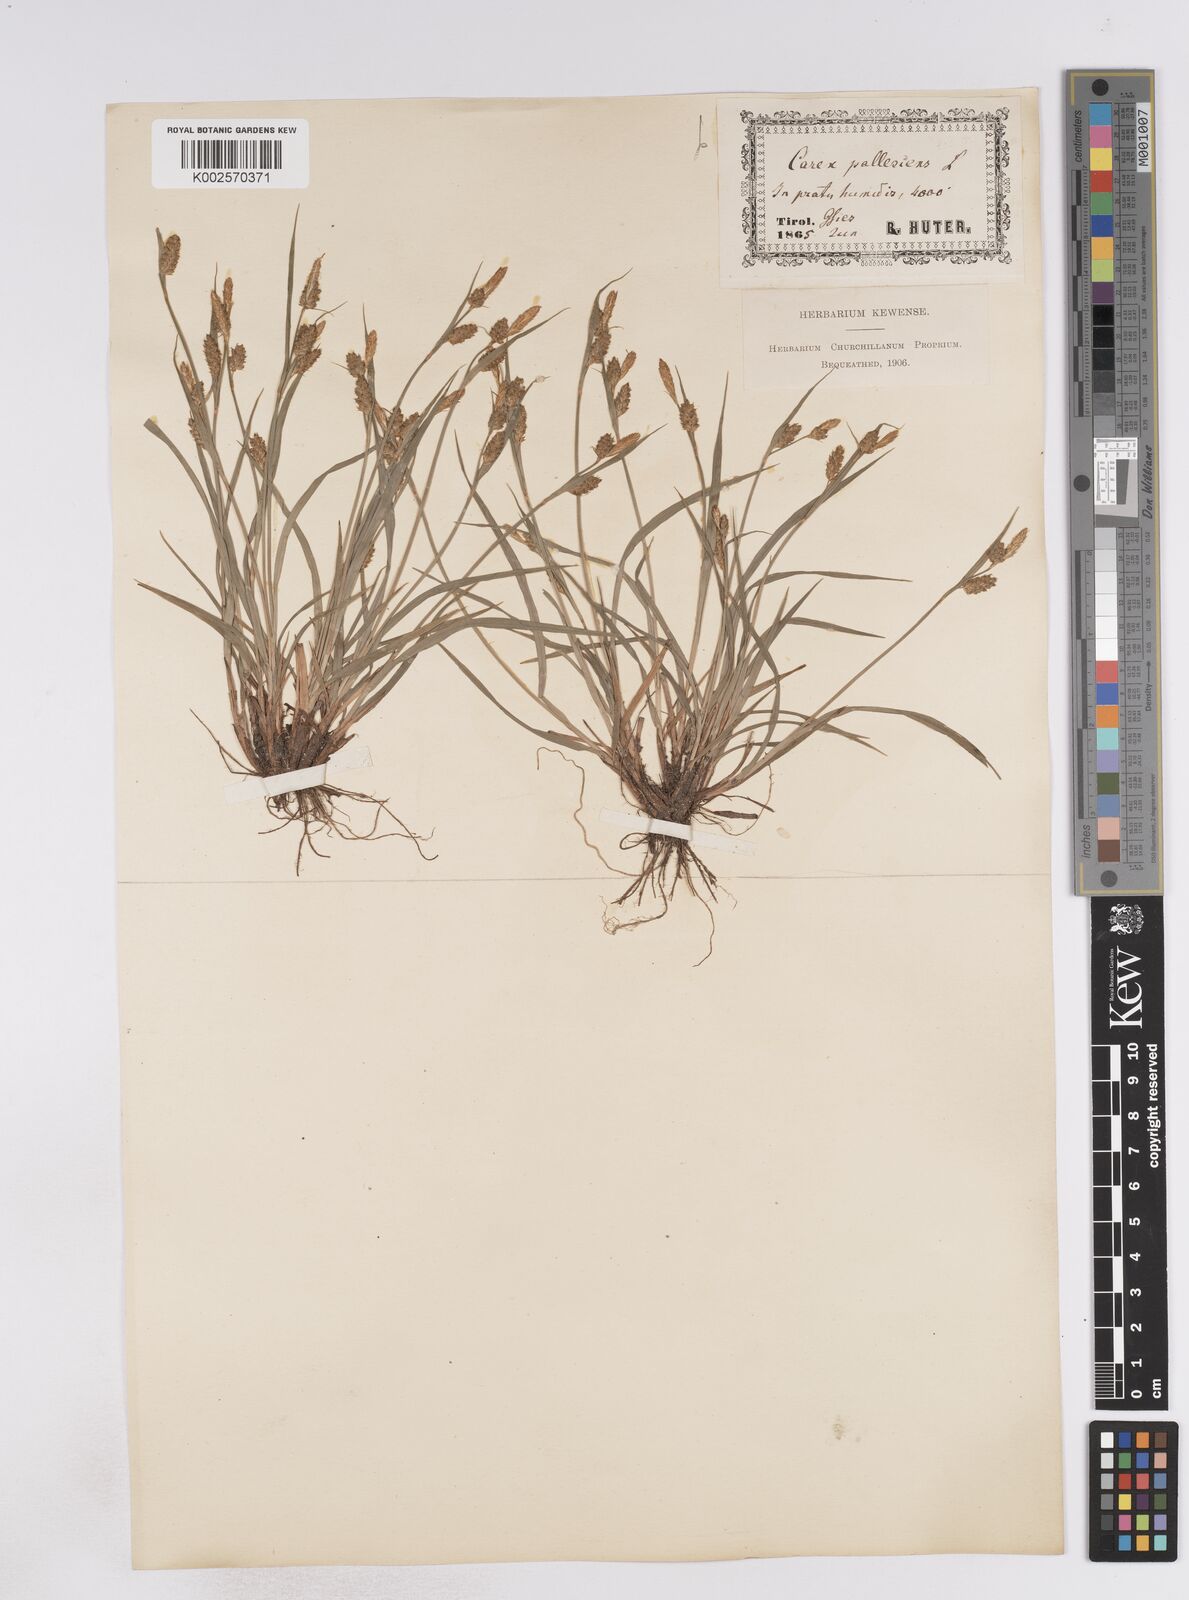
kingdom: Plantae
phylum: Tracheophyta
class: Liliopsida
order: Poales
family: Cyperaceae
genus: Carex
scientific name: Carex pallescens
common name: Pale sedge
